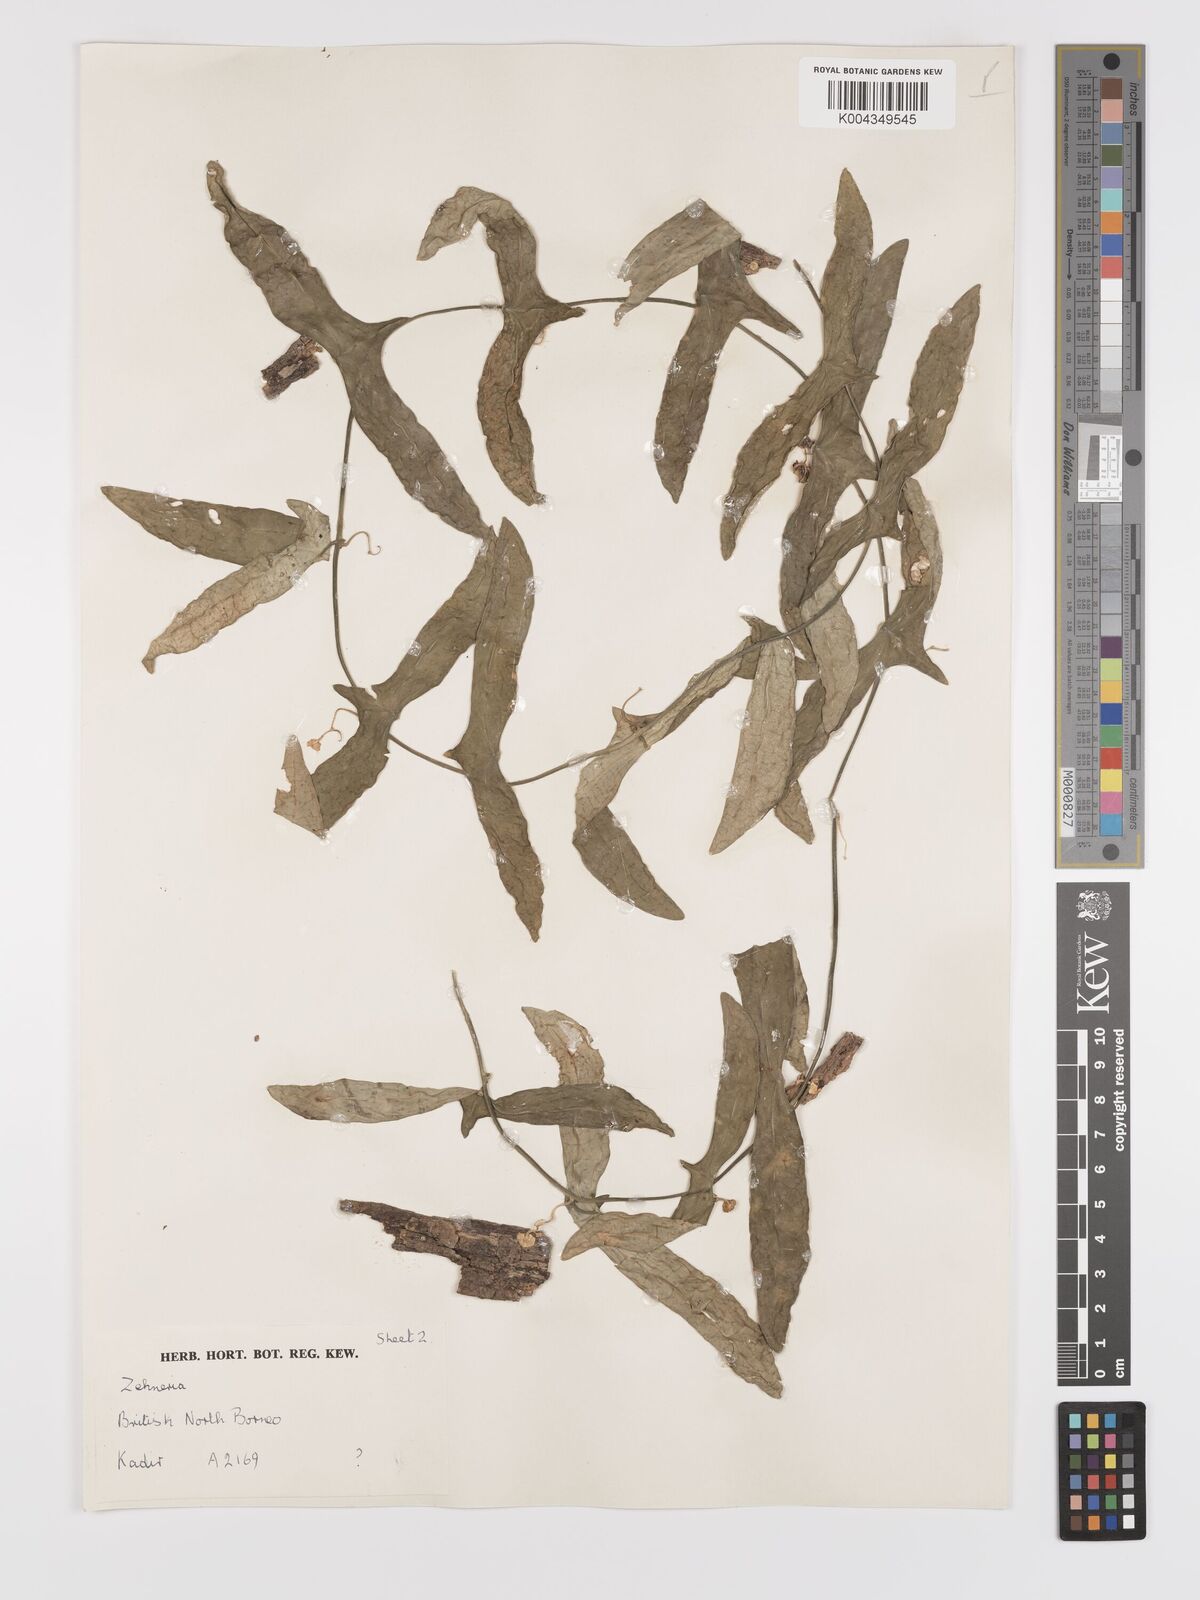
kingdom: Plantae
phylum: Tracheophyta
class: Magnoliopsida
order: Cucurbitales
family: Cucurbitaceae
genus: Zehneria
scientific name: Zehneria
